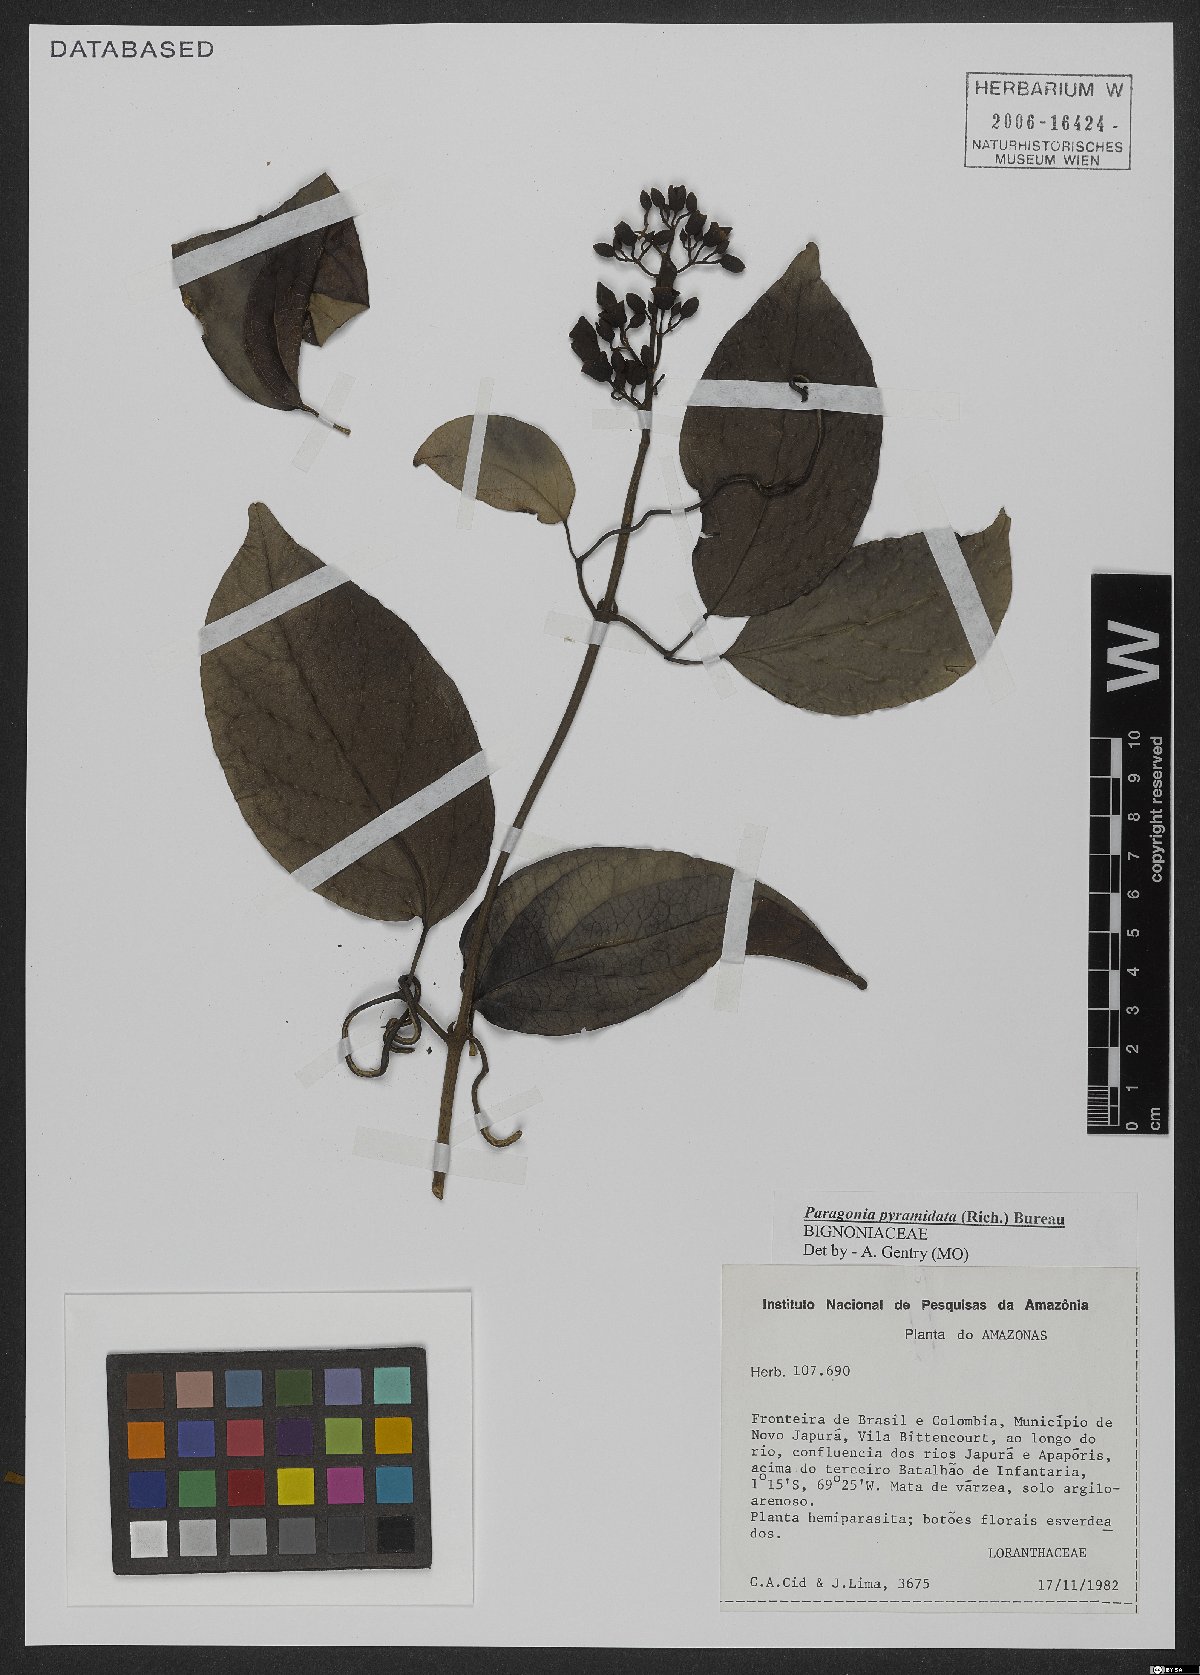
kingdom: Plantae
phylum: Tracheophyta
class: Magnoliopsida
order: Lamiales
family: Bignoniaceae
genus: Tanaecium
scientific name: Tanaecium pyramidatum
